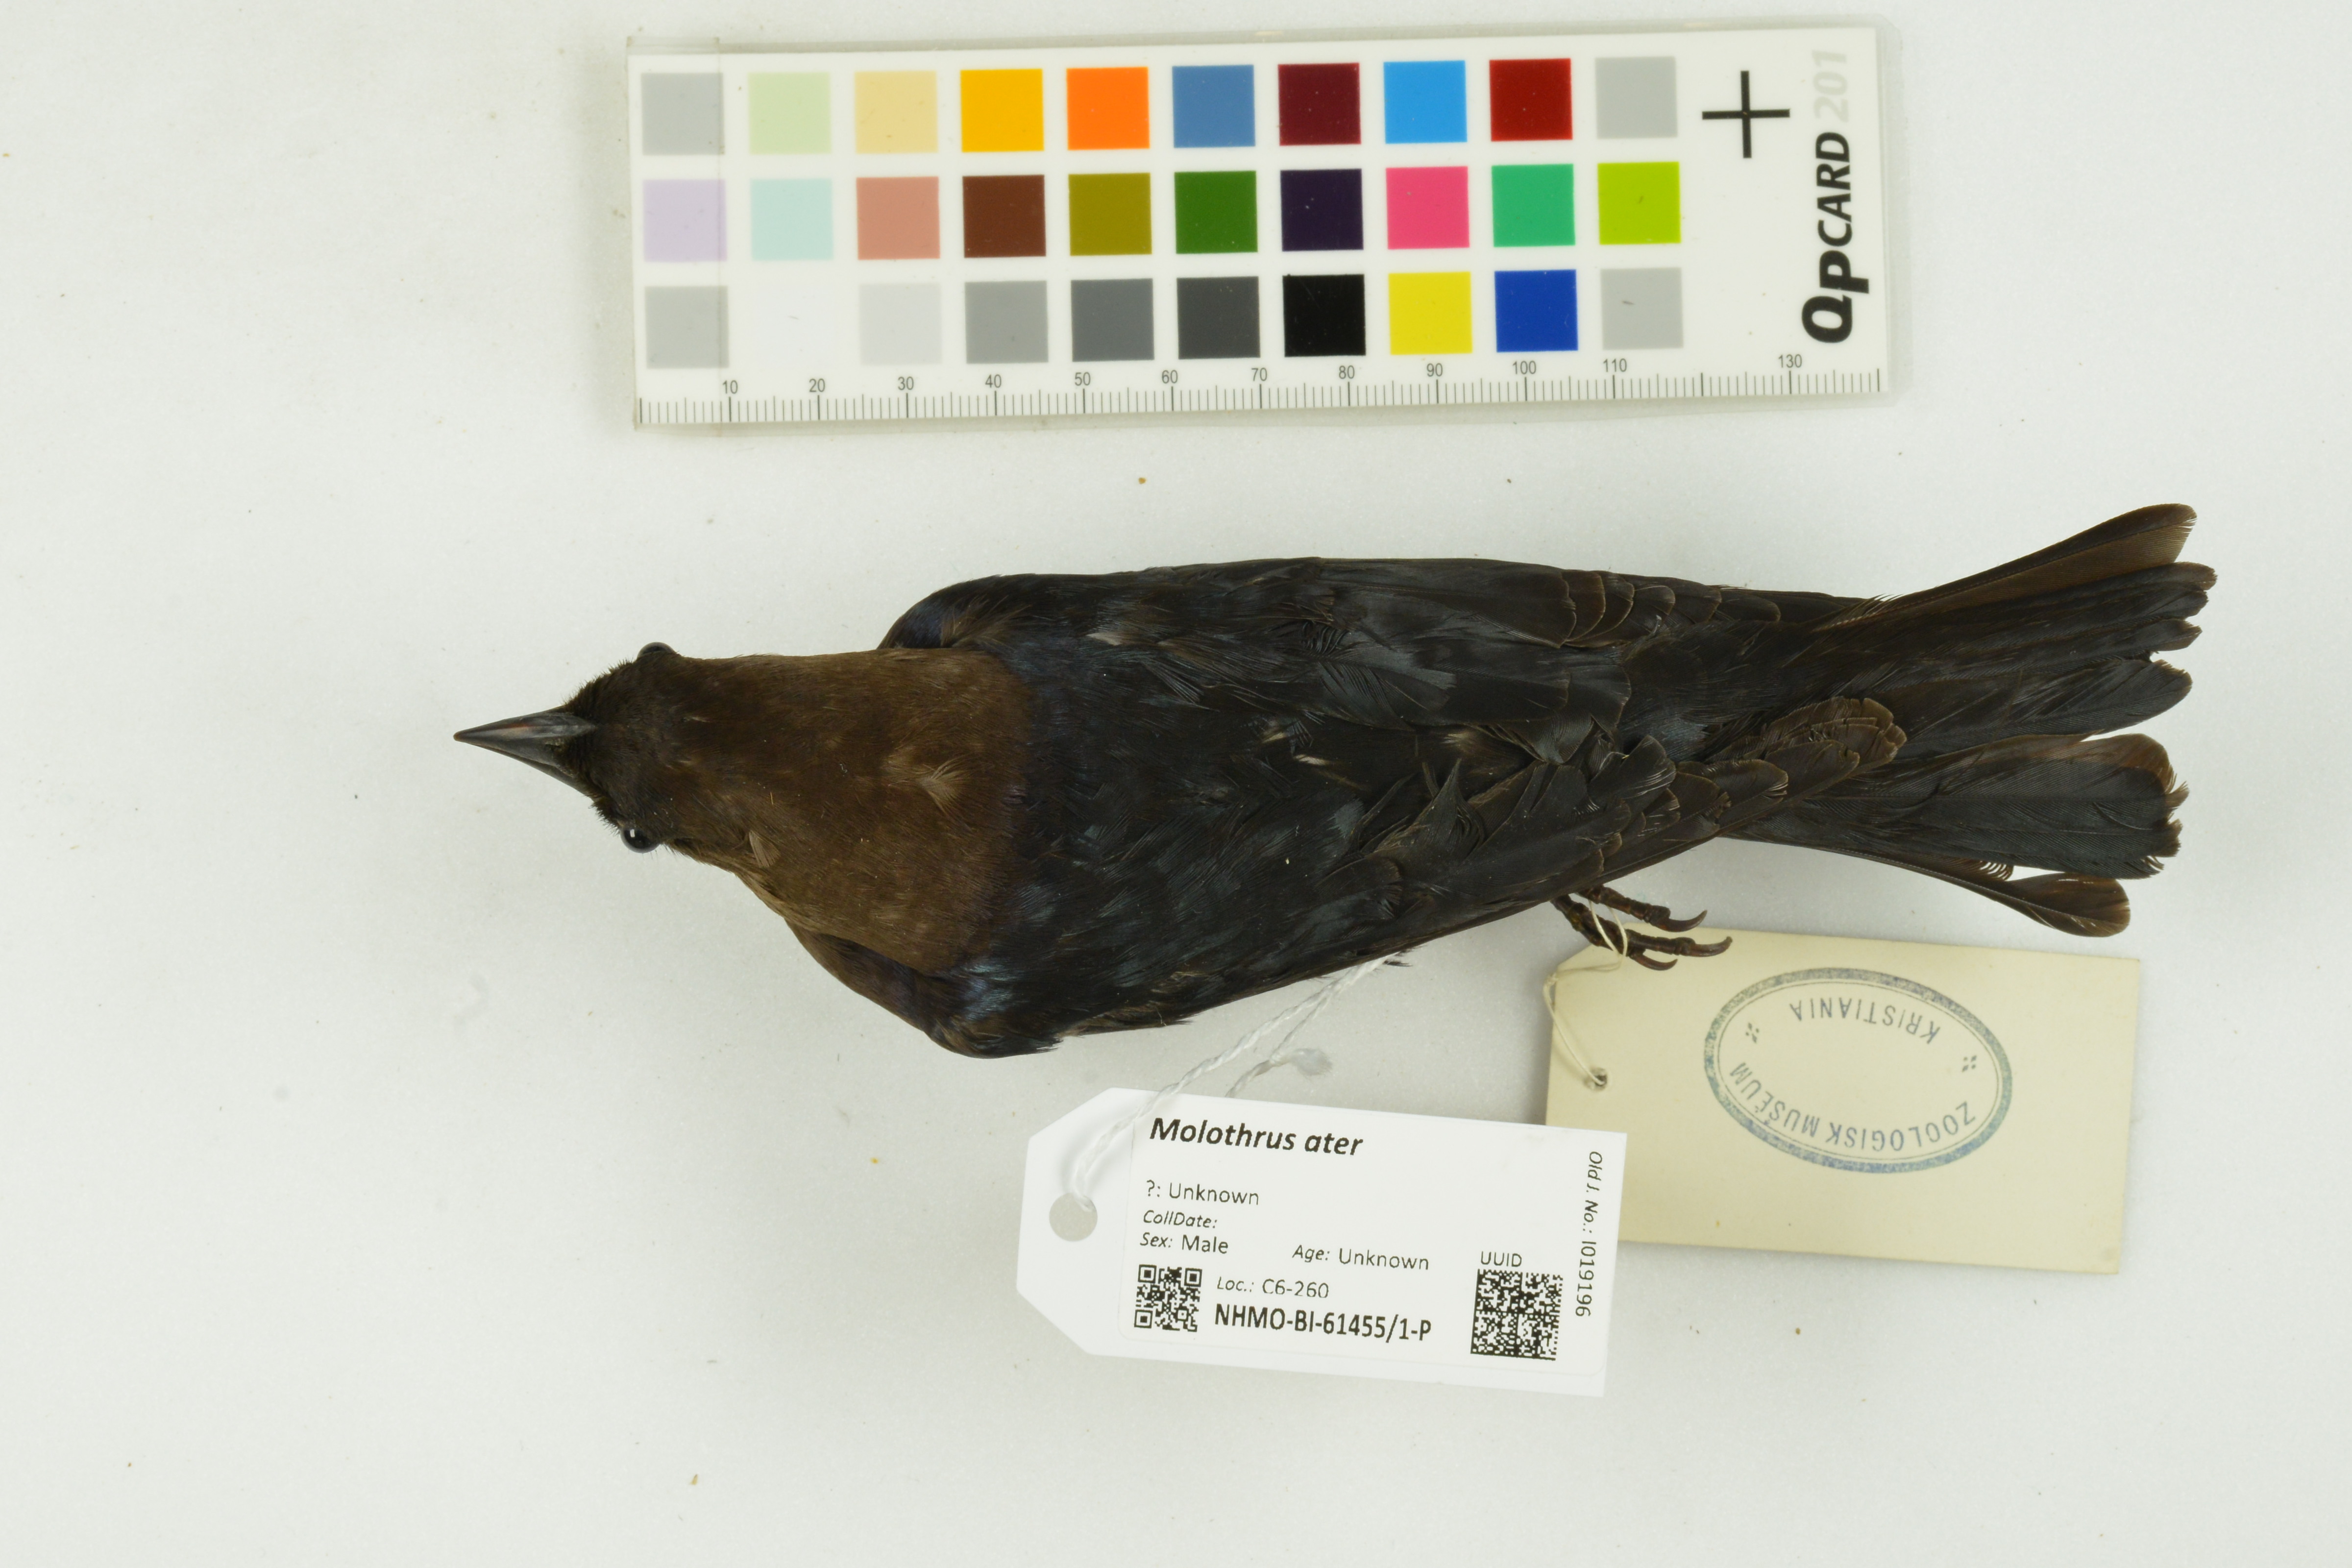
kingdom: Animalia
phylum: Chordata
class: Aves
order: Passeriformes
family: Icteridae
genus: Molothrus
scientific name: Molothrus ater
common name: Brown-headed cowbird
